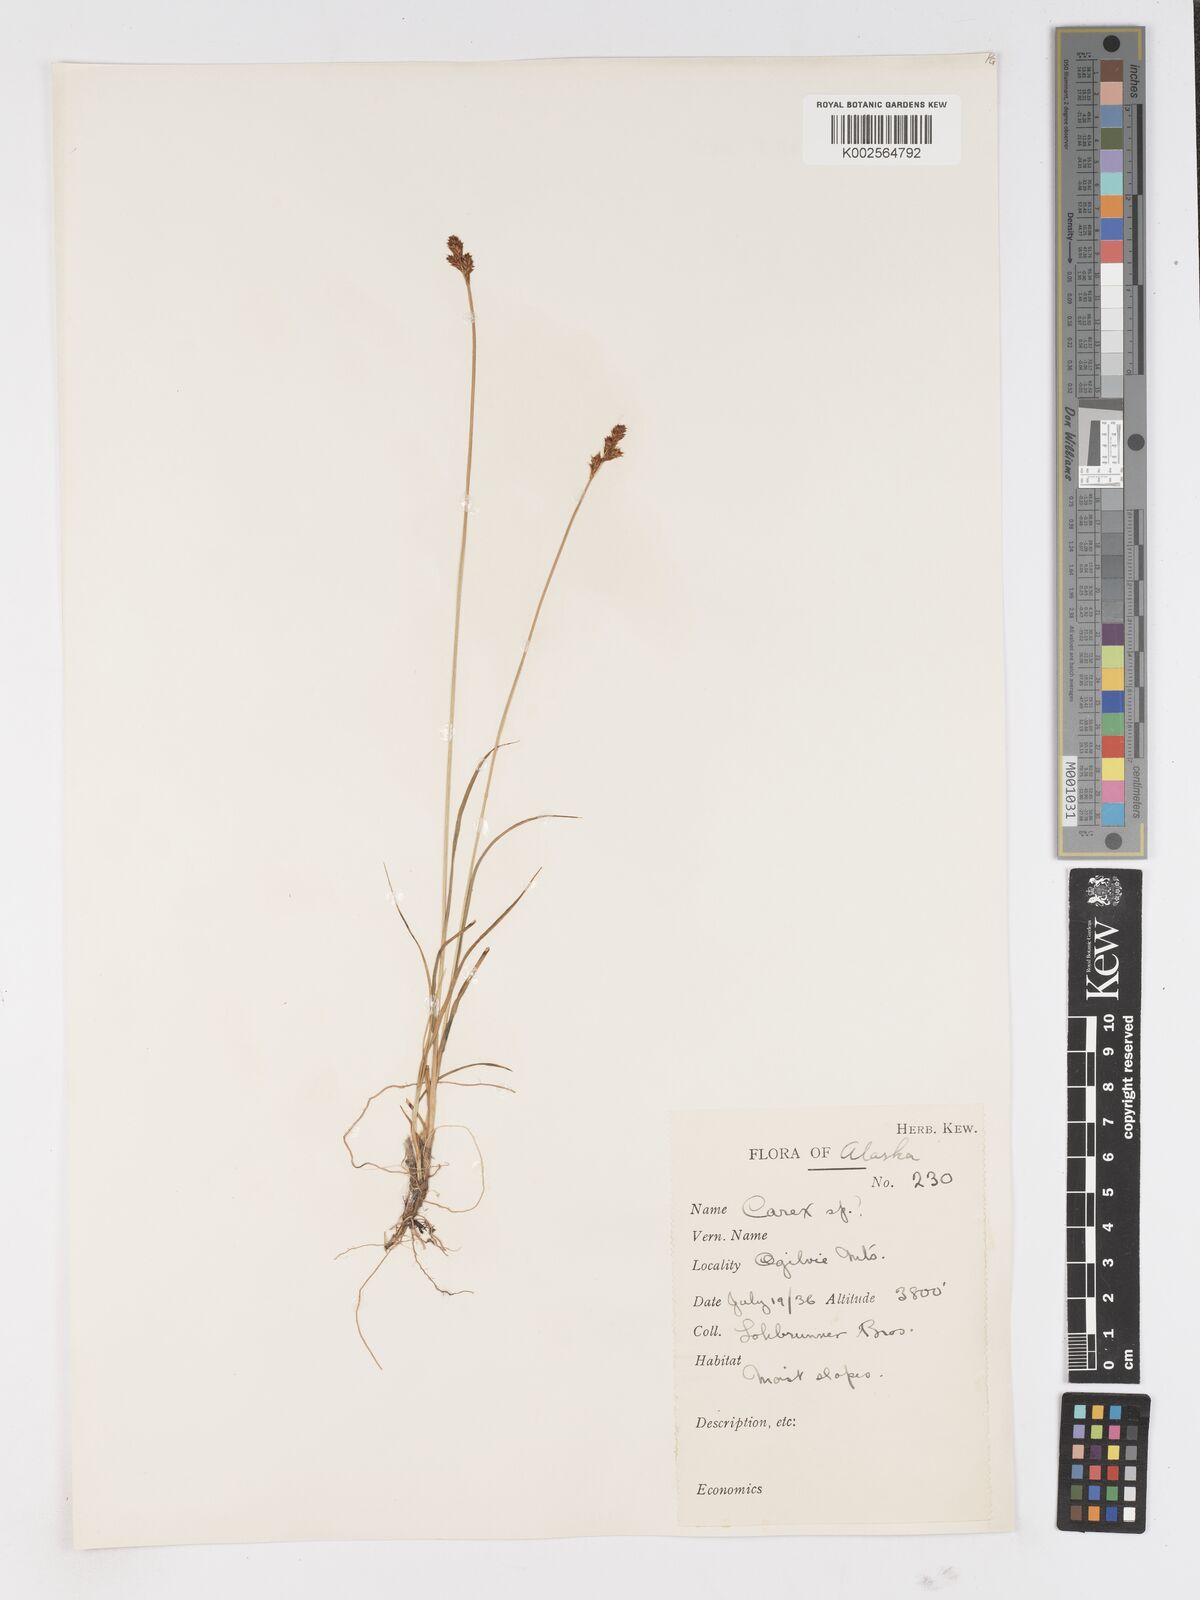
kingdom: Plantae
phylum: Tracheophyta
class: Liliopsida
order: Poales
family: Cyperaceae
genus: Carex
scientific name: Carex
